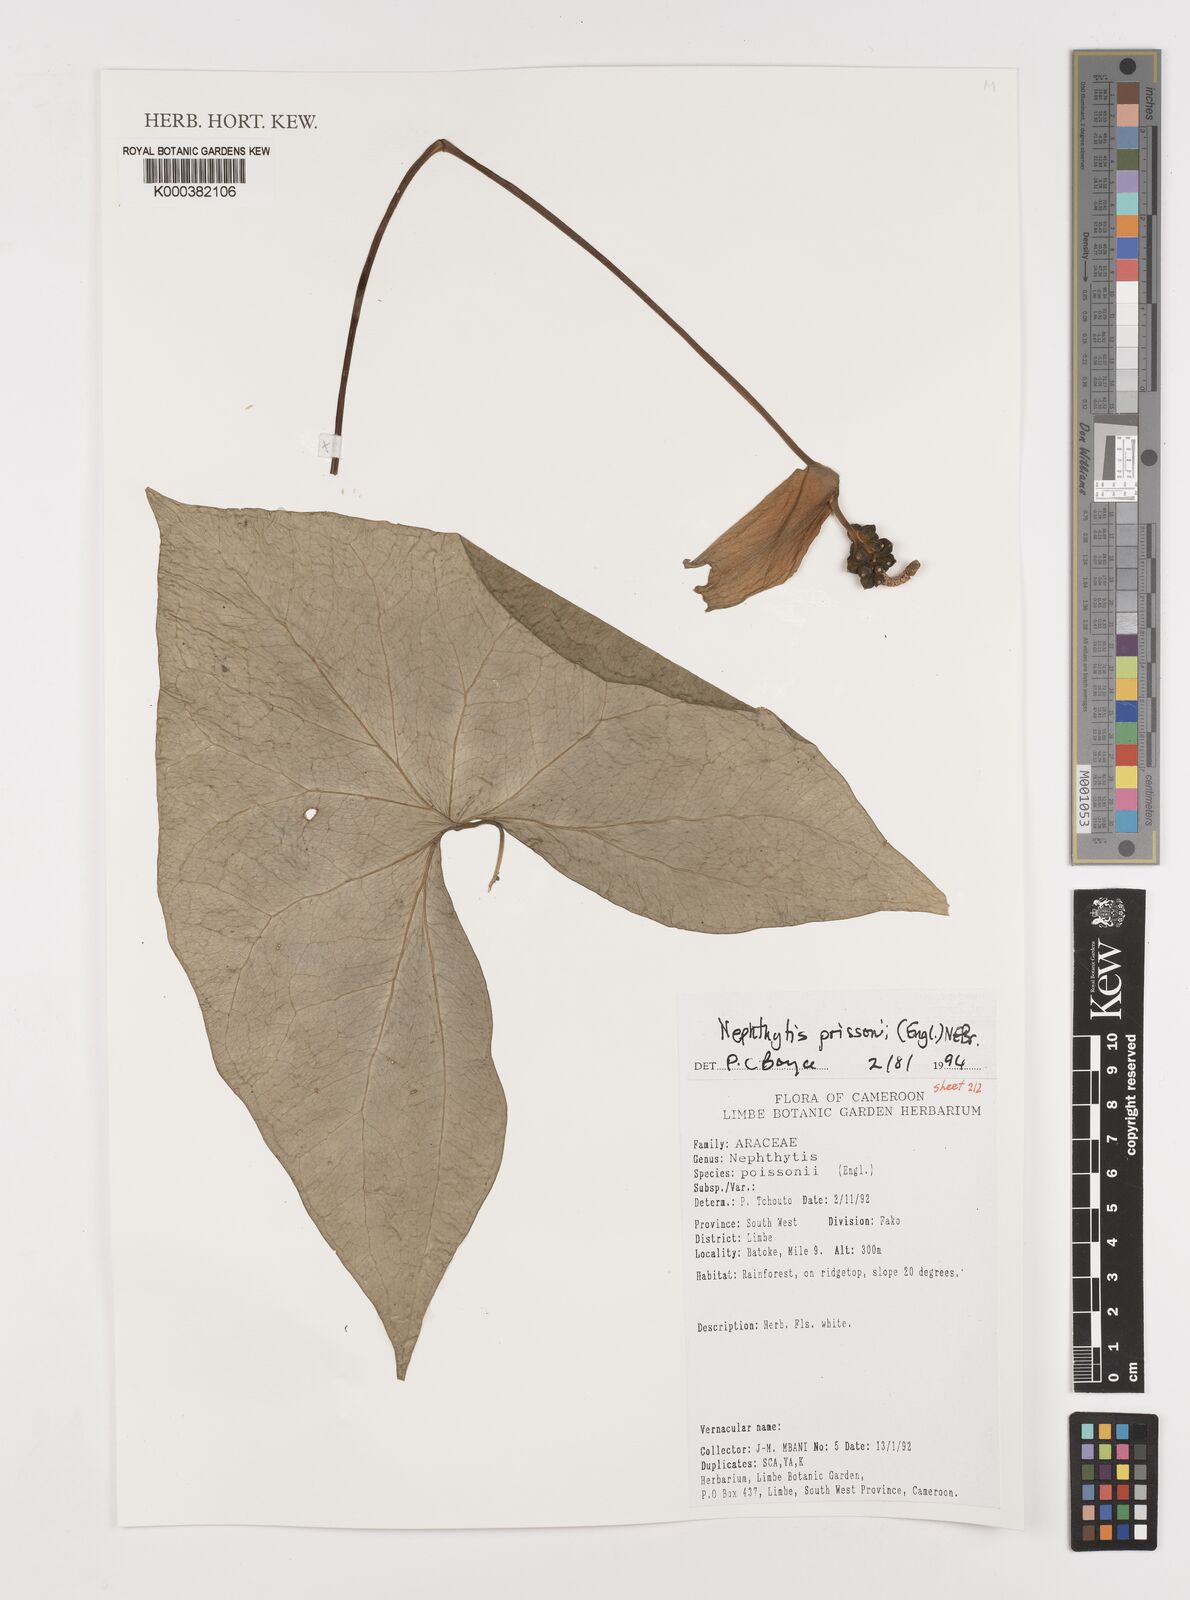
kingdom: Plantae
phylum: Tracheophyta
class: Liliopsida
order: Alismatales
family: Araceae
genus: Nephthytis
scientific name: Nephthytis poissonii
